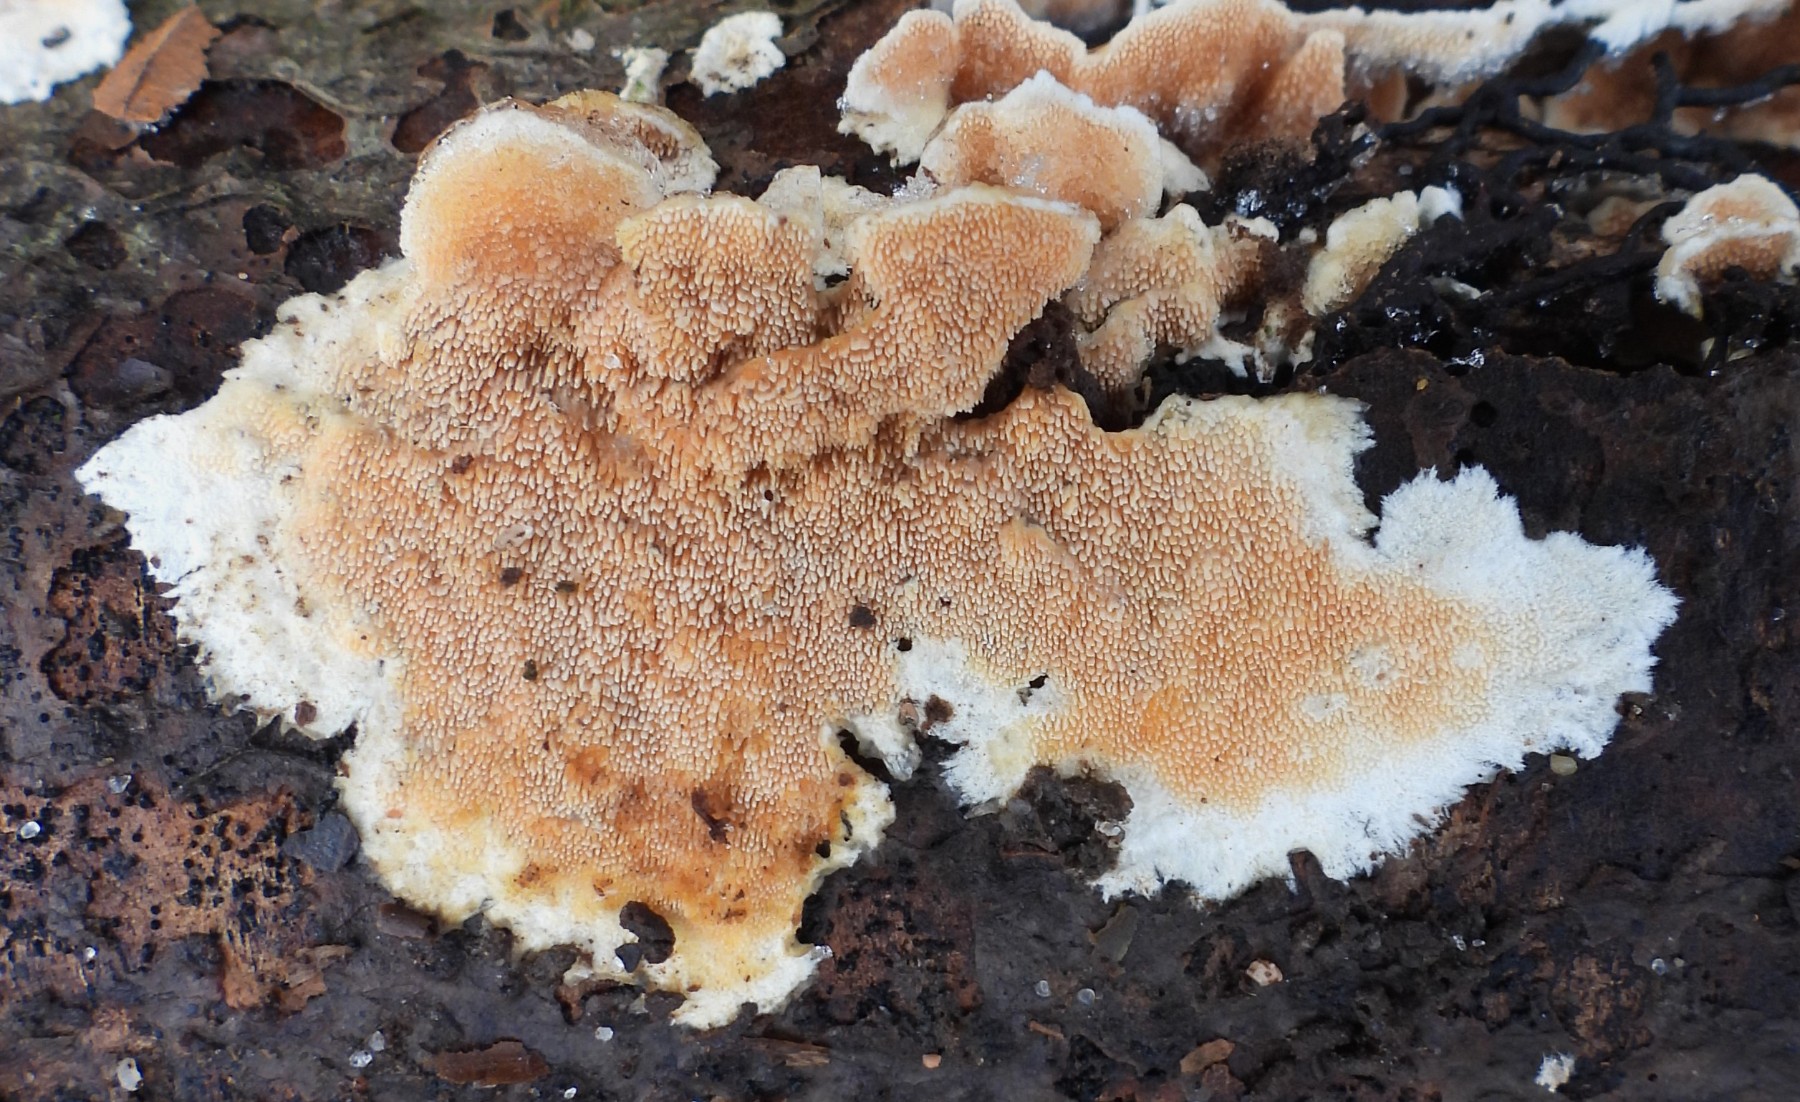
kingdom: Fungi
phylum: Basidiomycota
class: Agaricomycetes
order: Polyporales
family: Steccherinaceae
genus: Steccherinum
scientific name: Steccherinum ochraceum
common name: almindelig skønpig
